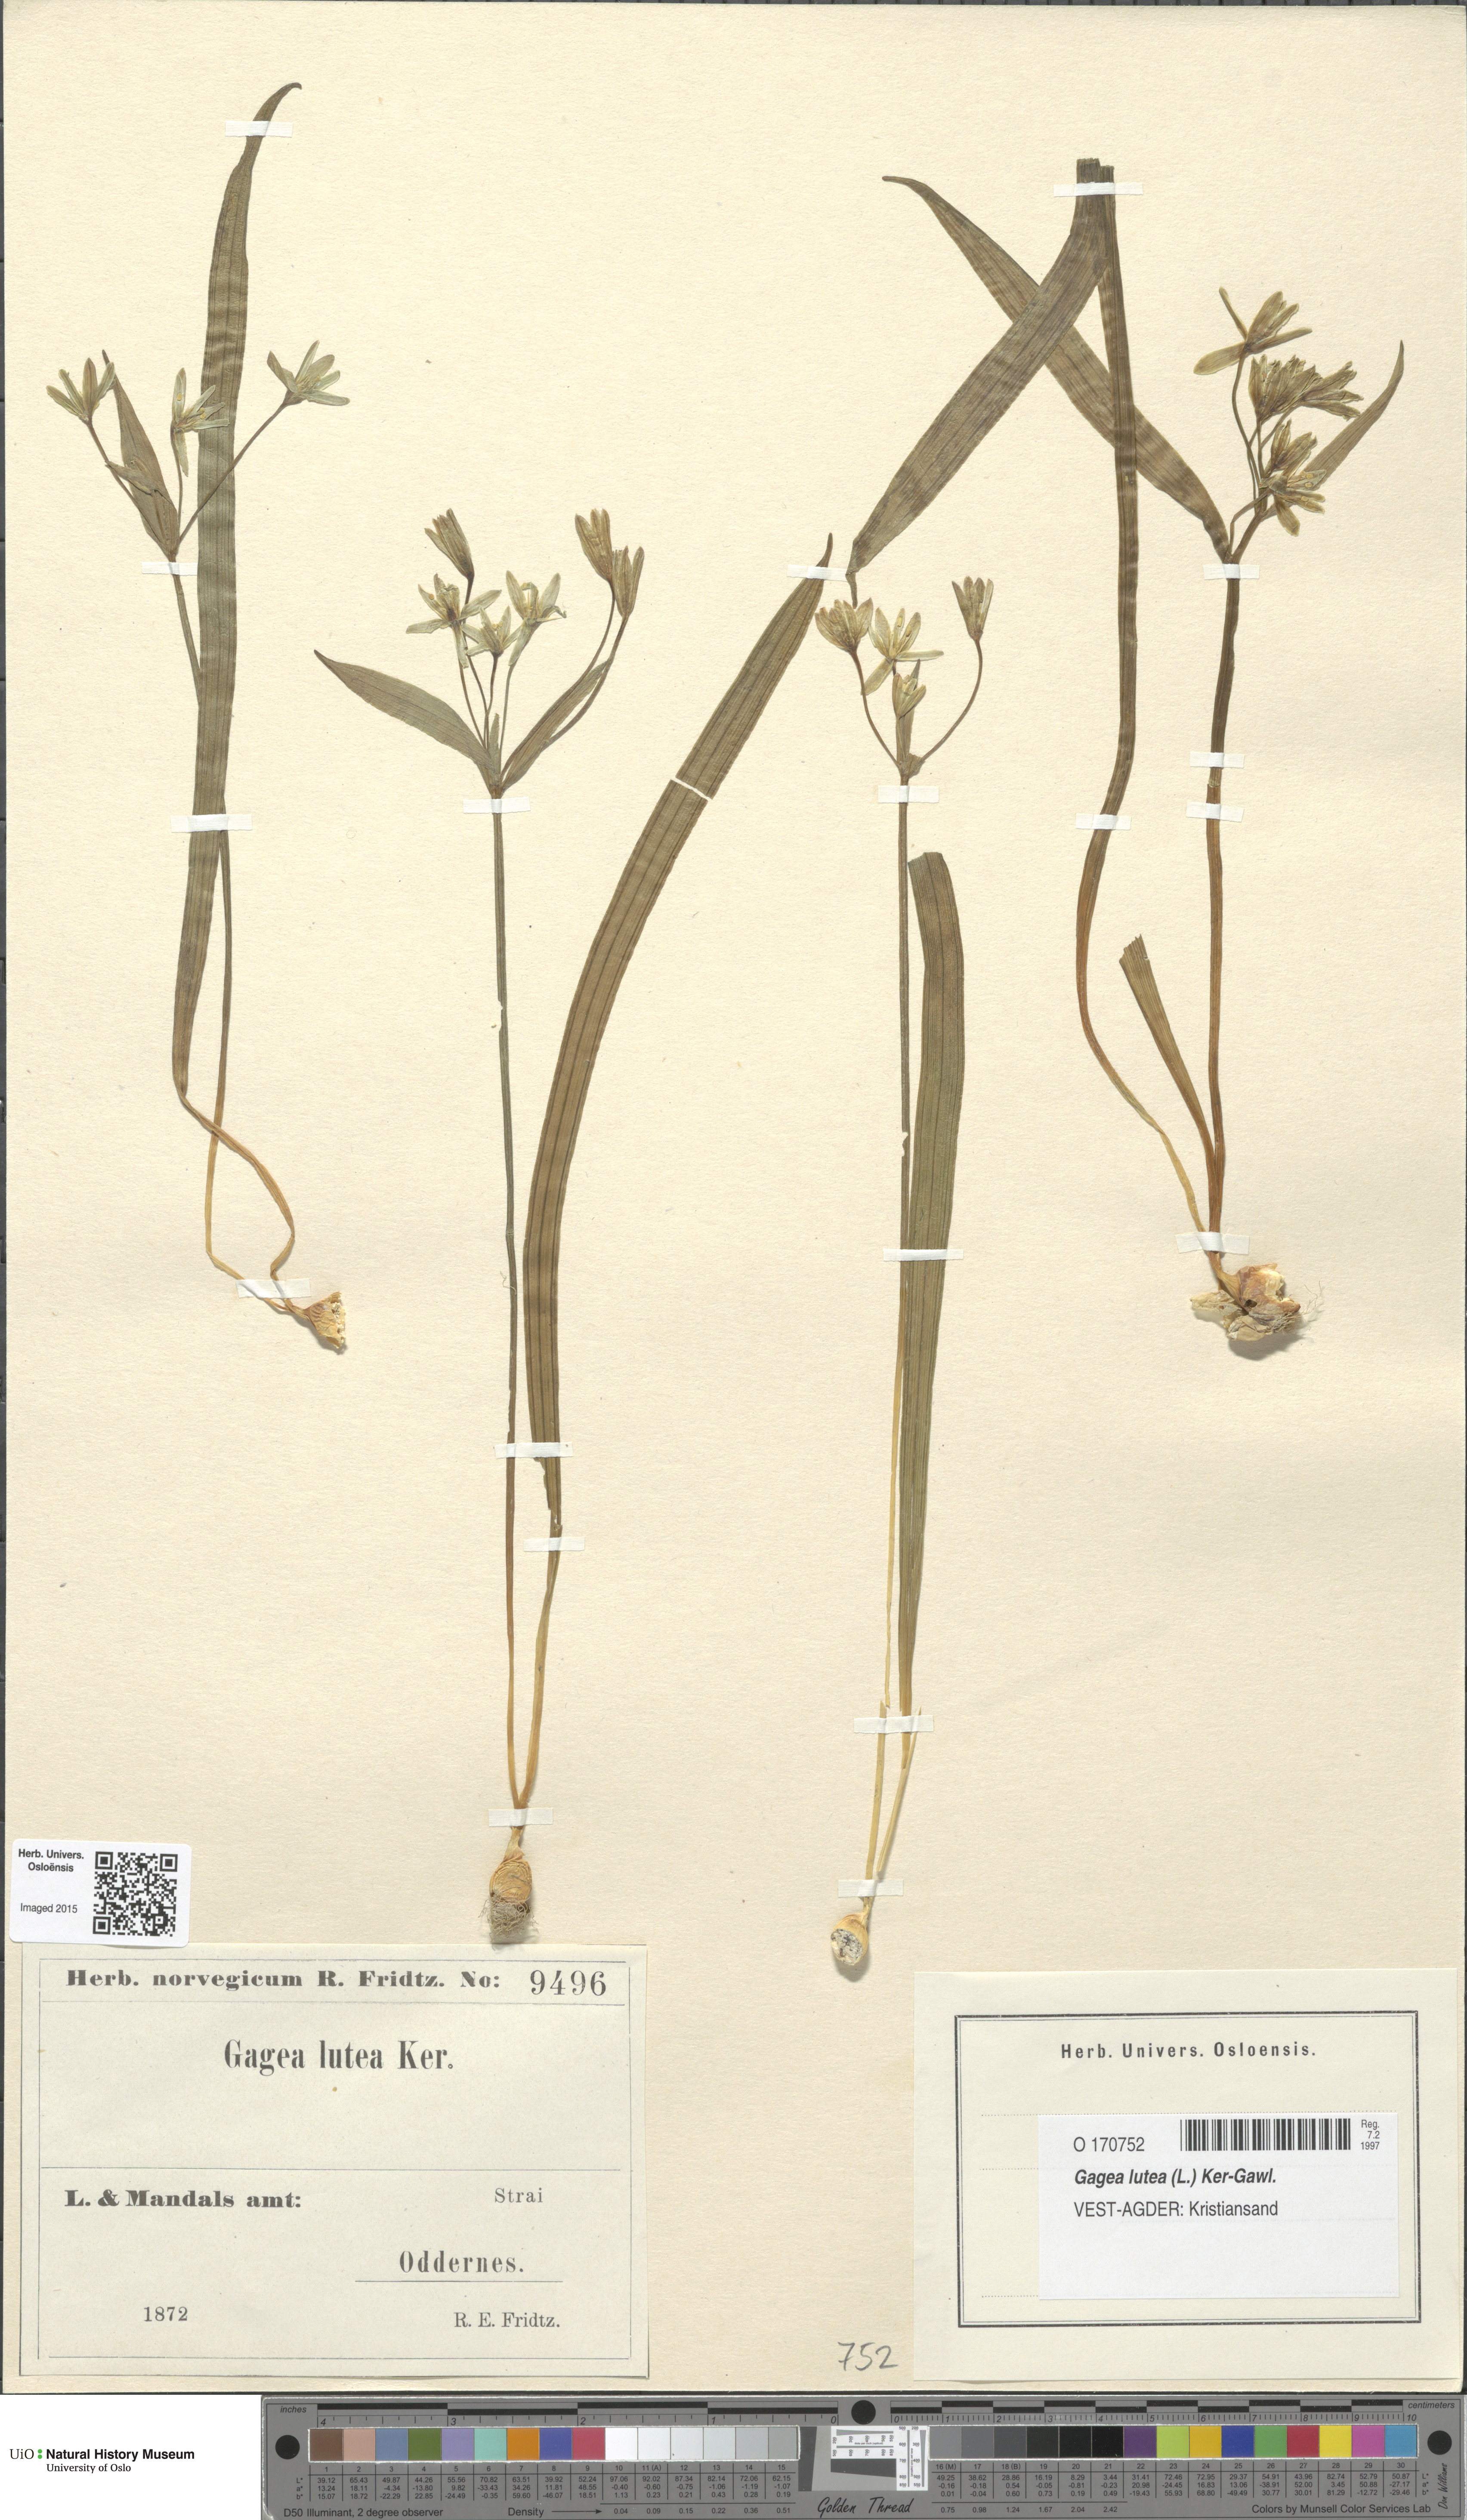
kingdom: Plantae
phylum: Tracheophyta
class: Liliopsida
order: Liliales
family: Liliaceae
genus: Gagea
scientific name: Gagea lutea
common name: Yellow star-of-bethlehem
